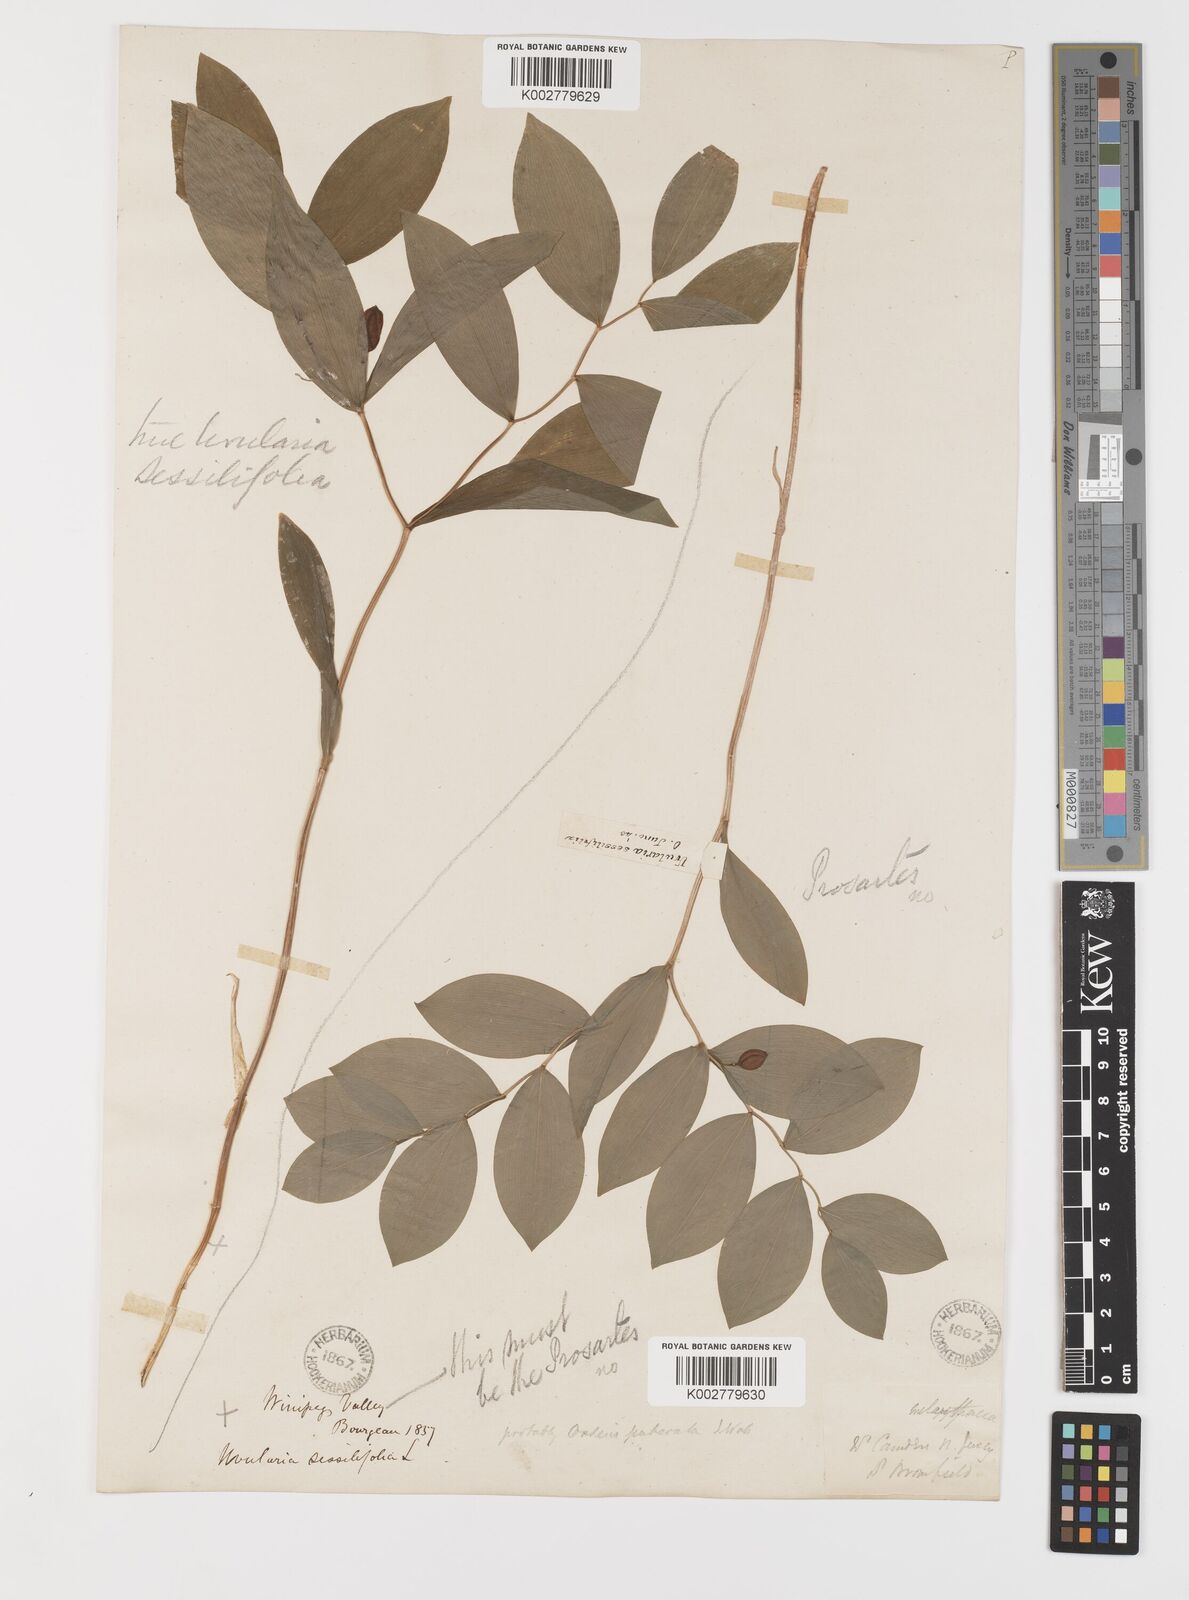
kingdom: Plantae
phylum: Tracheophyta
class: Liliopsida
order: Liliales
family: Colchicaceae
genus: Uvularia
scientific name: Uvularia sessilifolia
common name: Straw-lily
